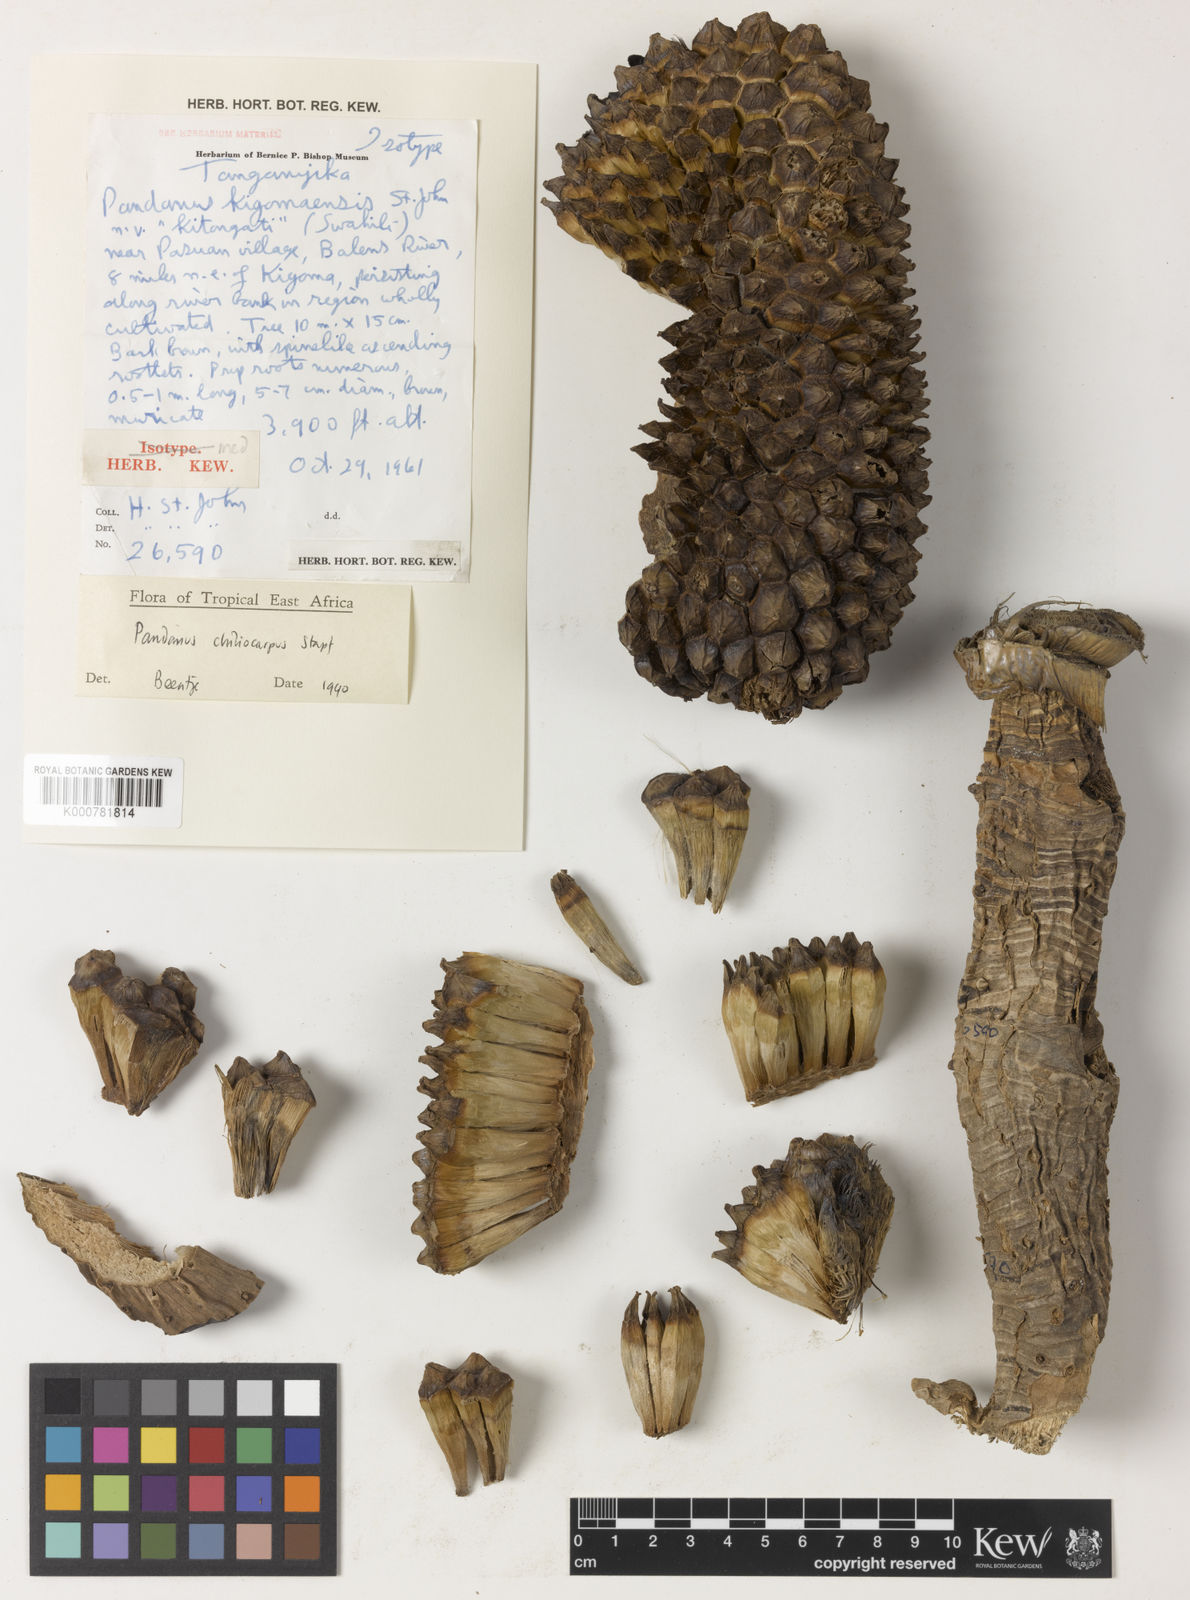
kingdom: Plantae
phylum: Tracheophyta
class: Liliopsida
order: Pandanales
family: Pandanaceae
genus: Pandanus
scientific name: Pandanus chiliocarpus
